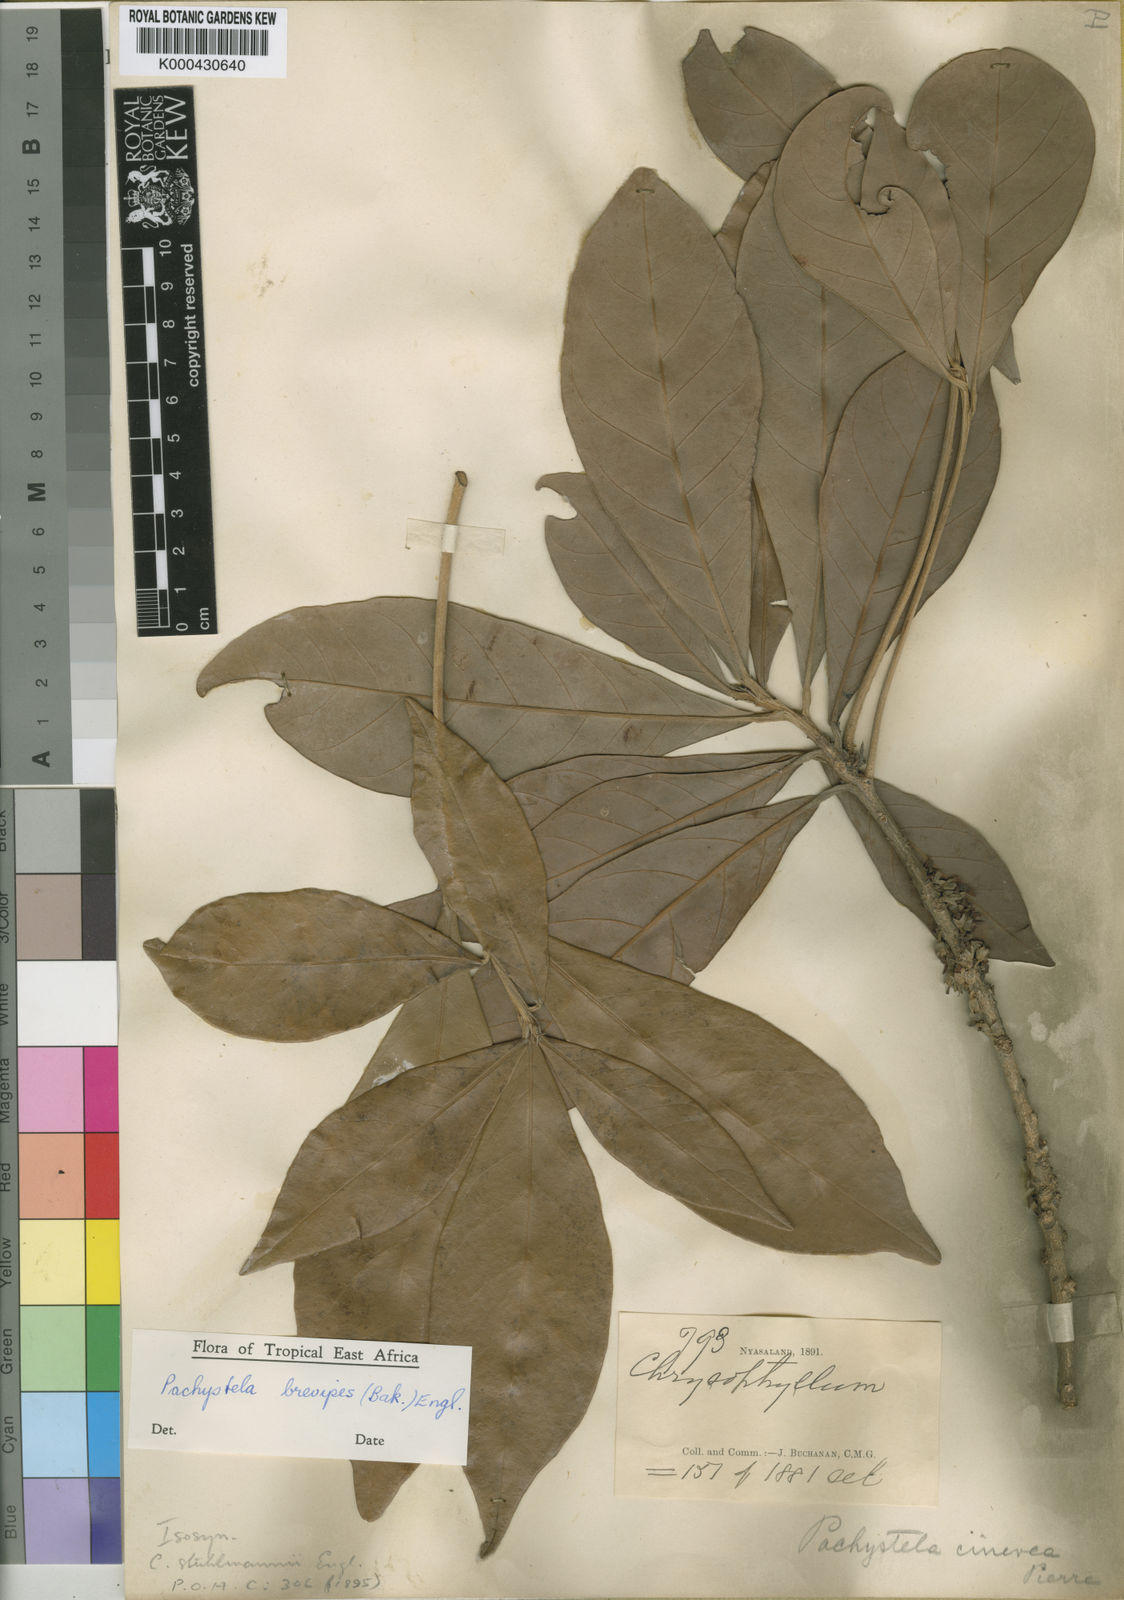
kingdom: Plantae
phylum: Tracheophyta
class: Magnoliopsida
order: Ericales
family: Sapotaceae
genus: Synsepalum
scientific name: Synsepalum brevipes
